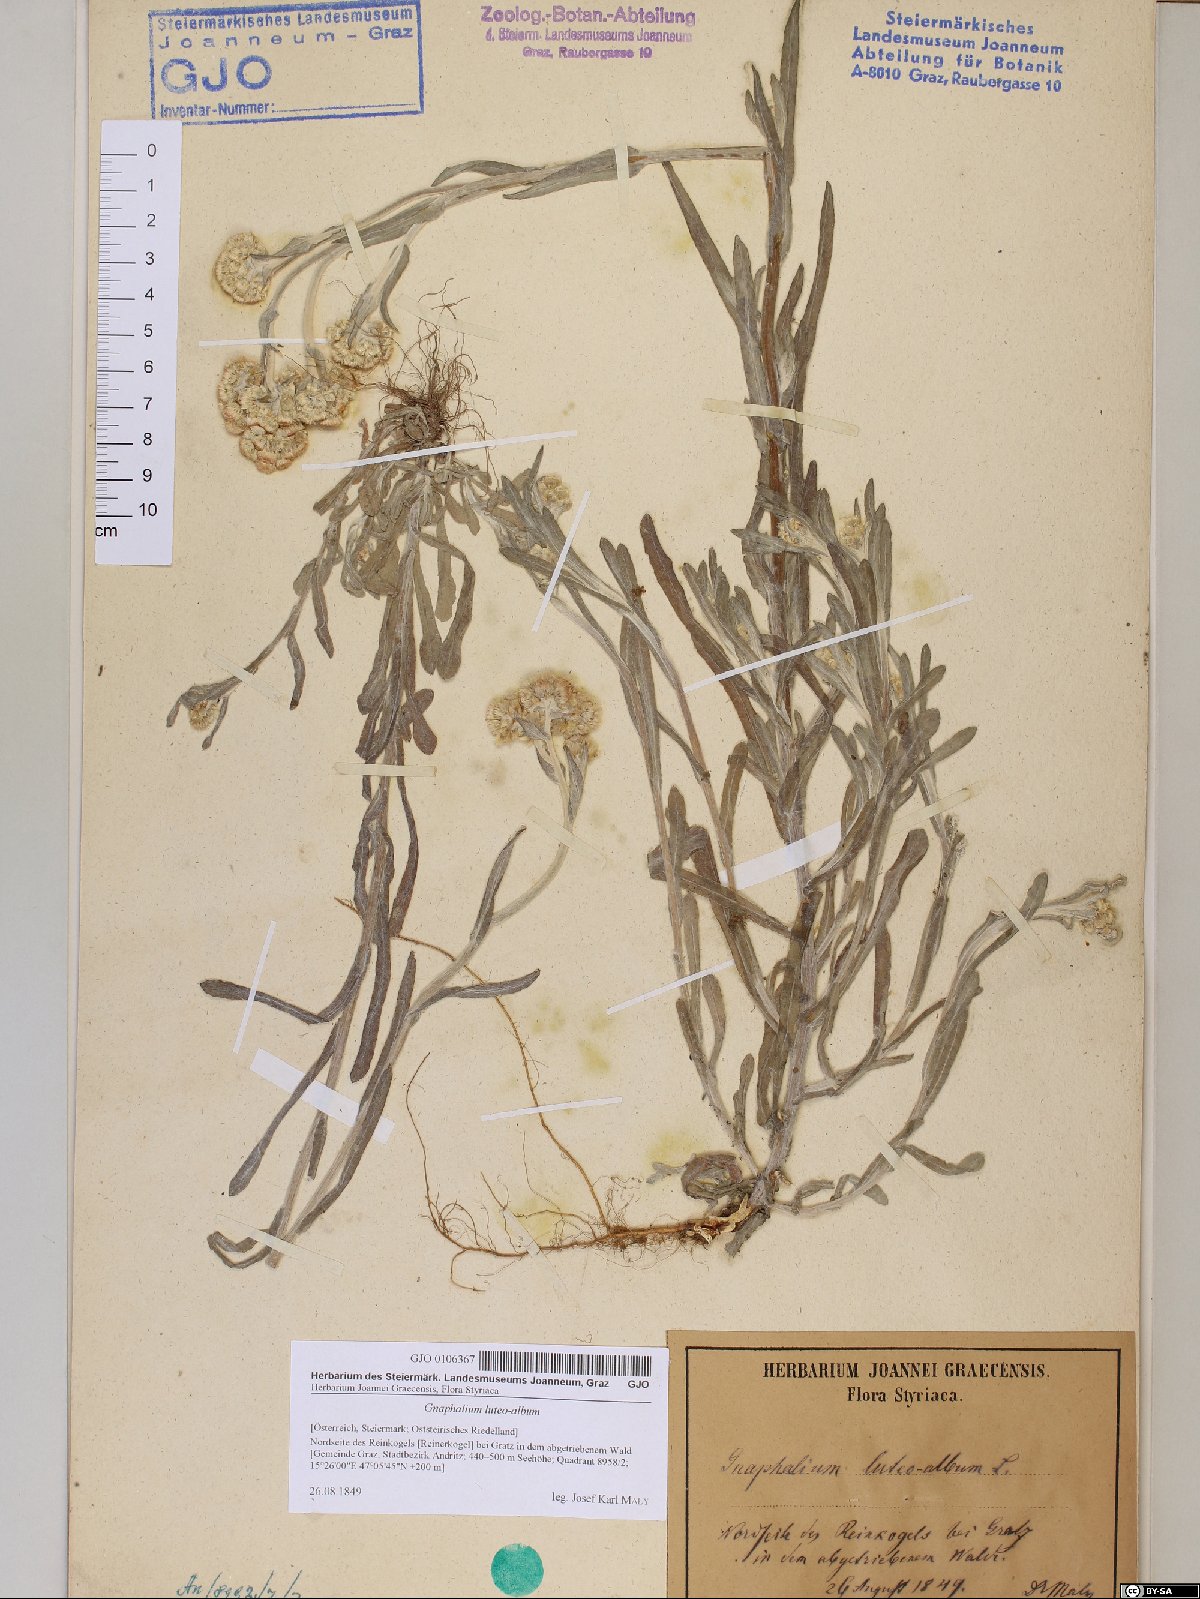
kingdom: Plantae
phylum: Tracheophyta
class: Magnoliopsida
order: Asterales
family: Asteraceae
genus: Helichrysum
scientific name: Helichrysum luteoalbum
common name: Daisy
